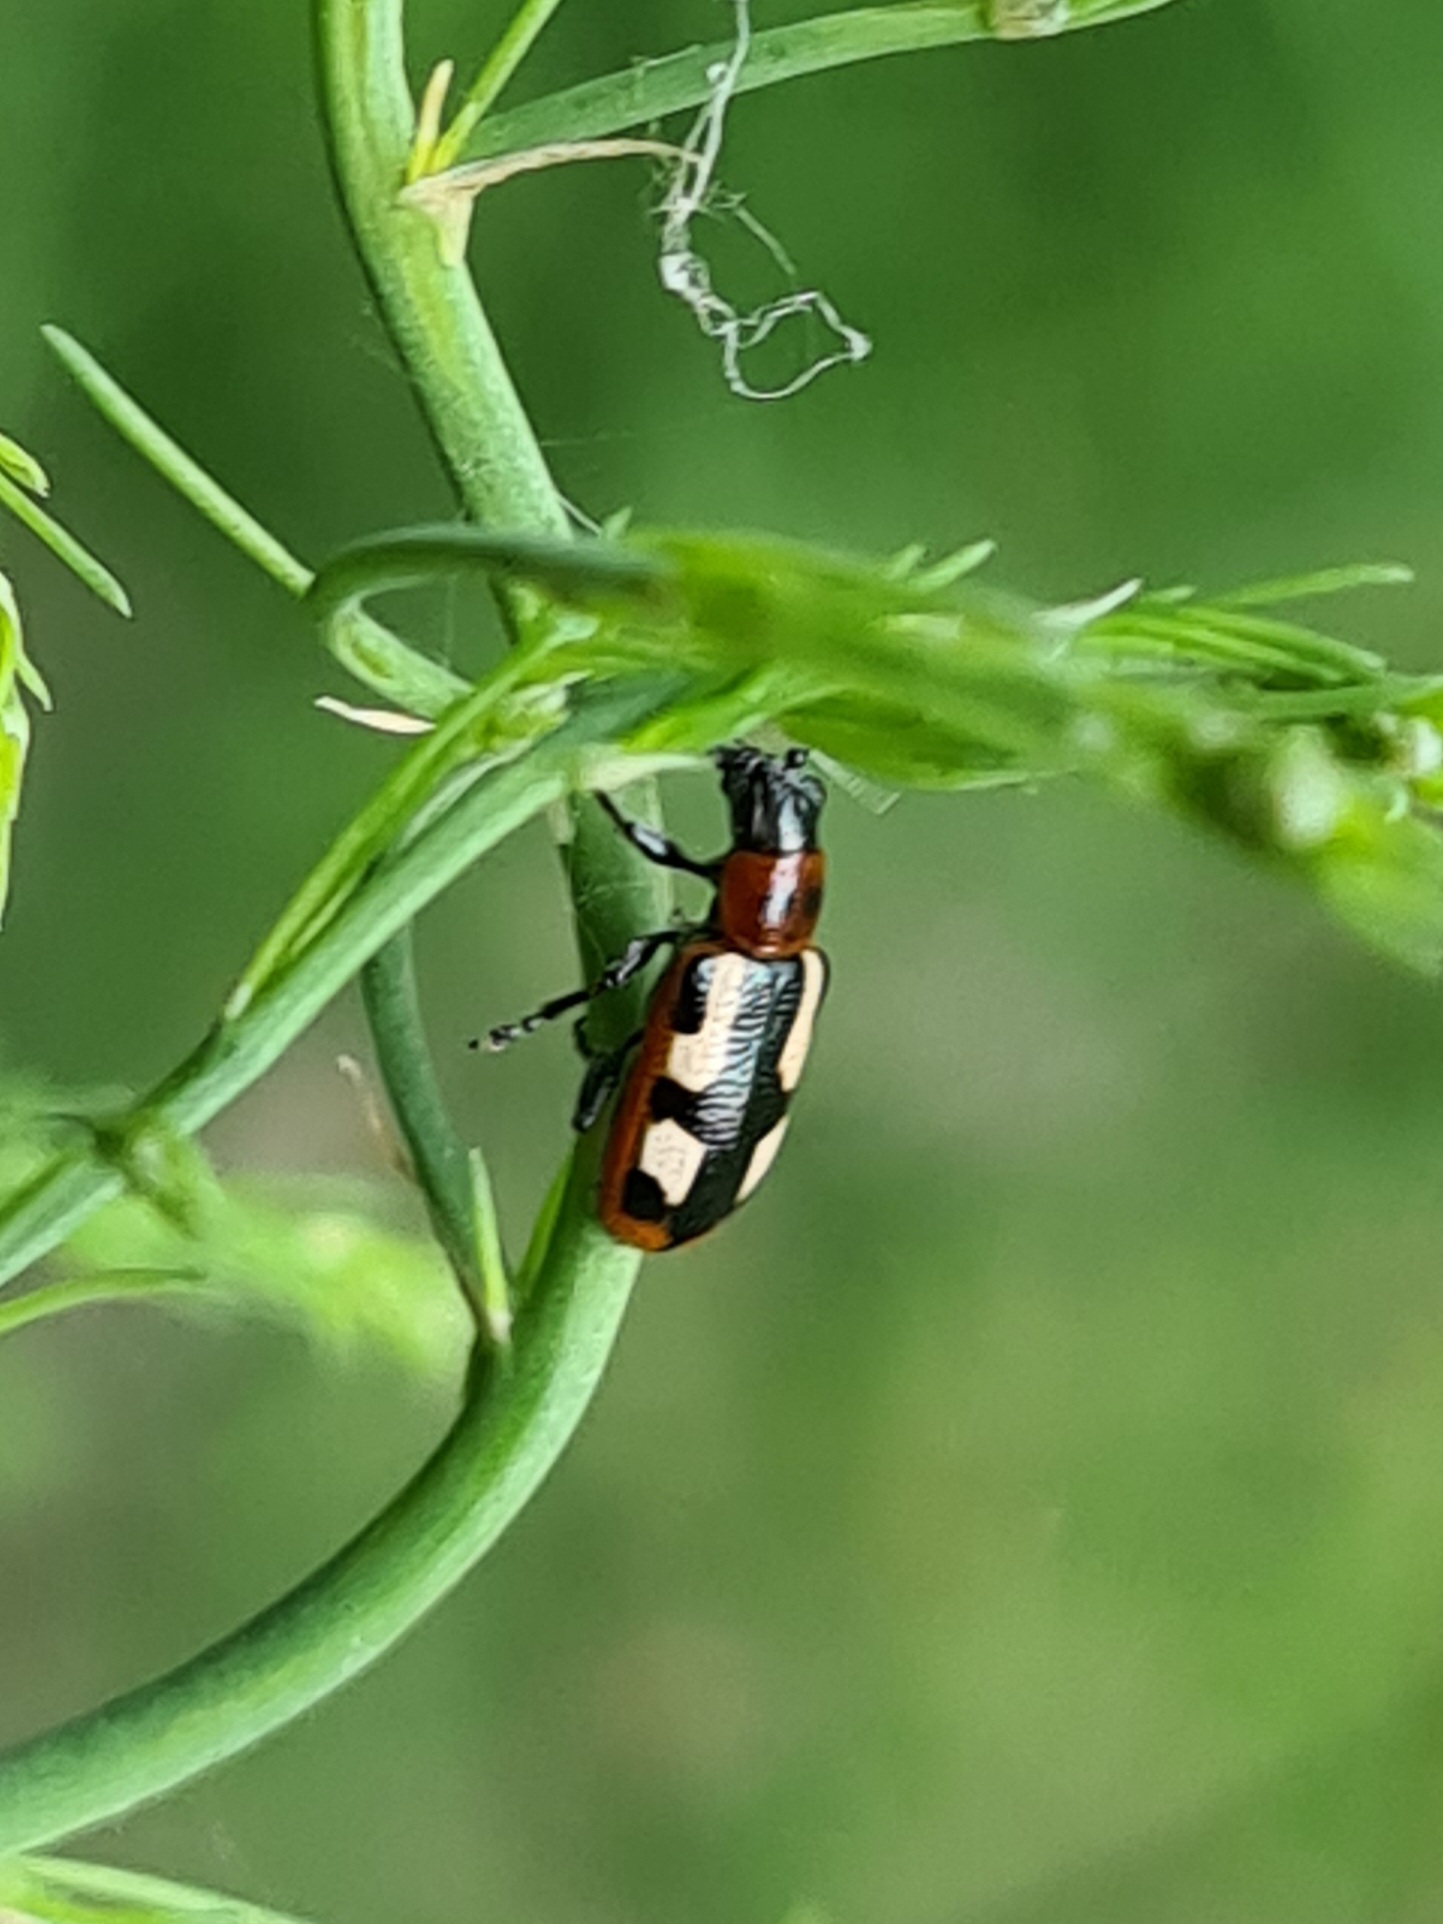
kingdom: Animalia
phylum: Arthropoda
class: Insecta
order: Coleoptera
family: Chrysomelidae
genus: Crioceris
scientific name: Crioceris asparagi
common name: Gulplettet aspargesbille
